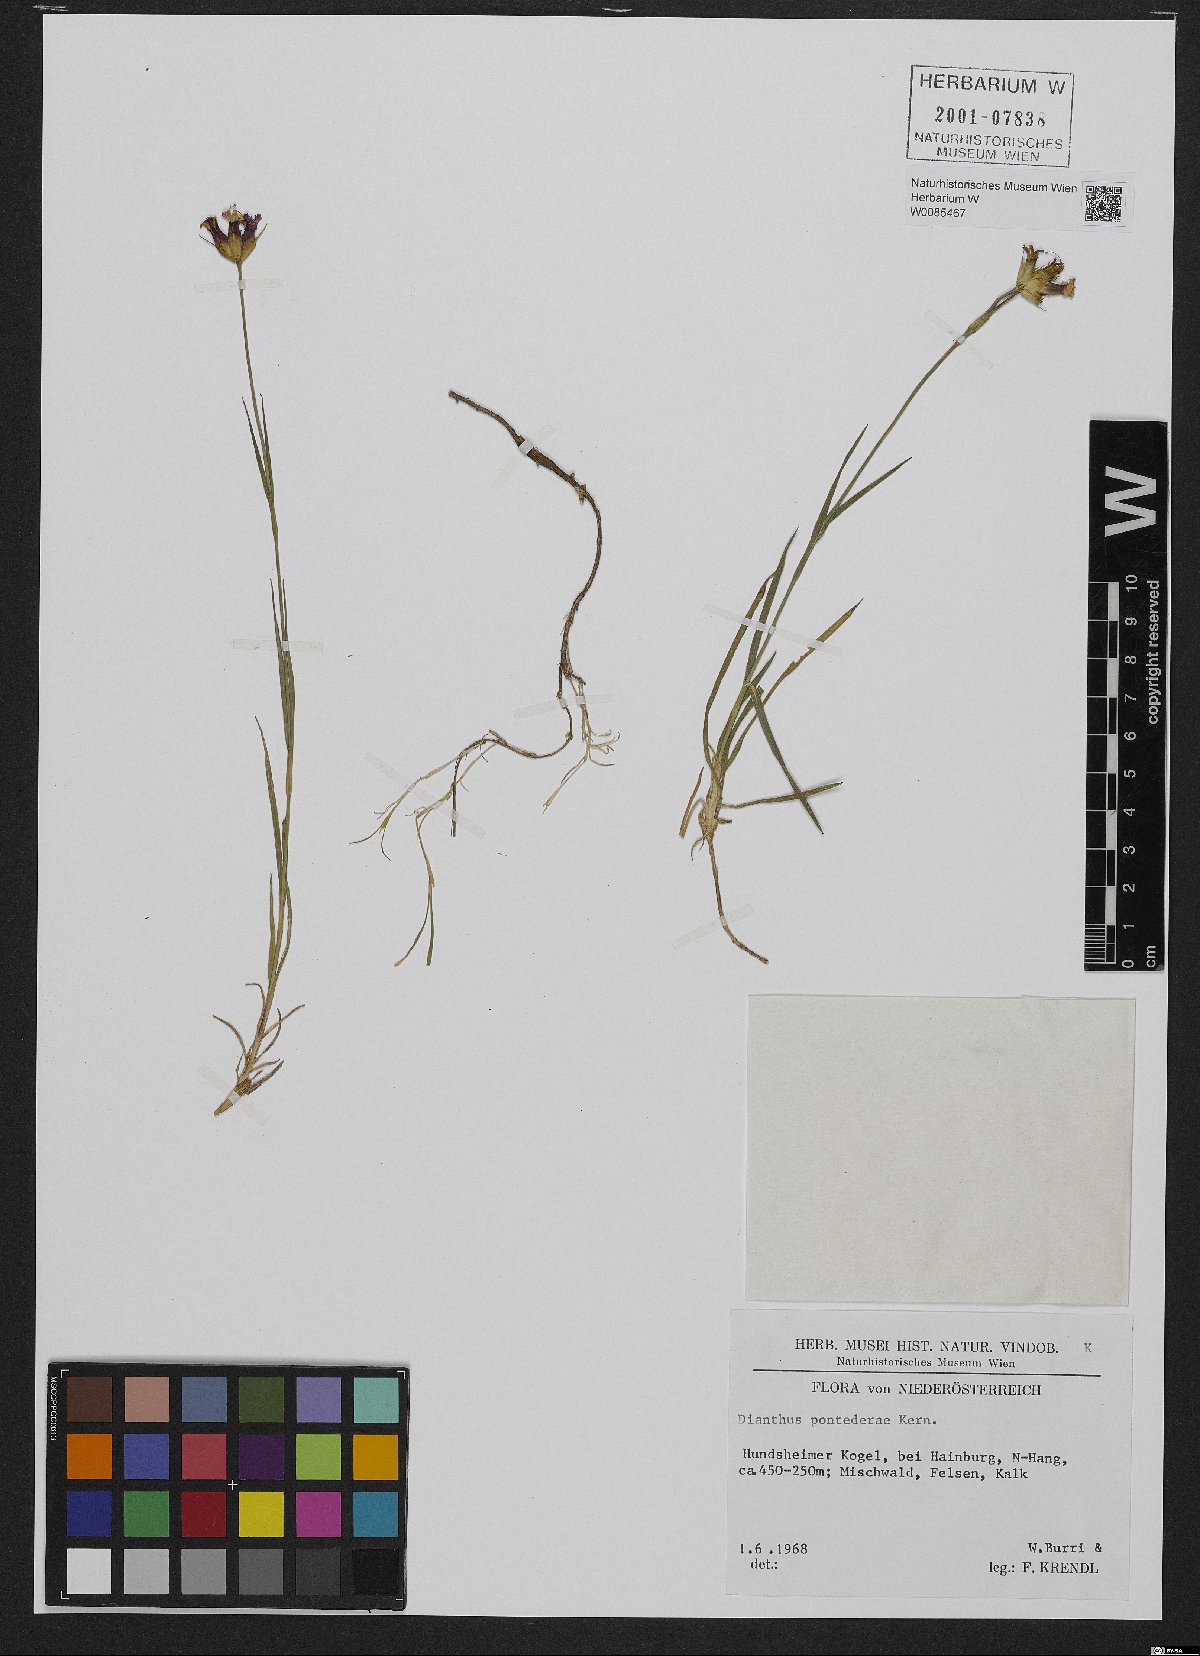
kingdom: Plantae
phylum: Tracheophyta
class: Magnoliopsida
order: Caryophyllales
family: Caryophyllaceae
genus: Dianthus
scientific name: Dianthus pontederae
